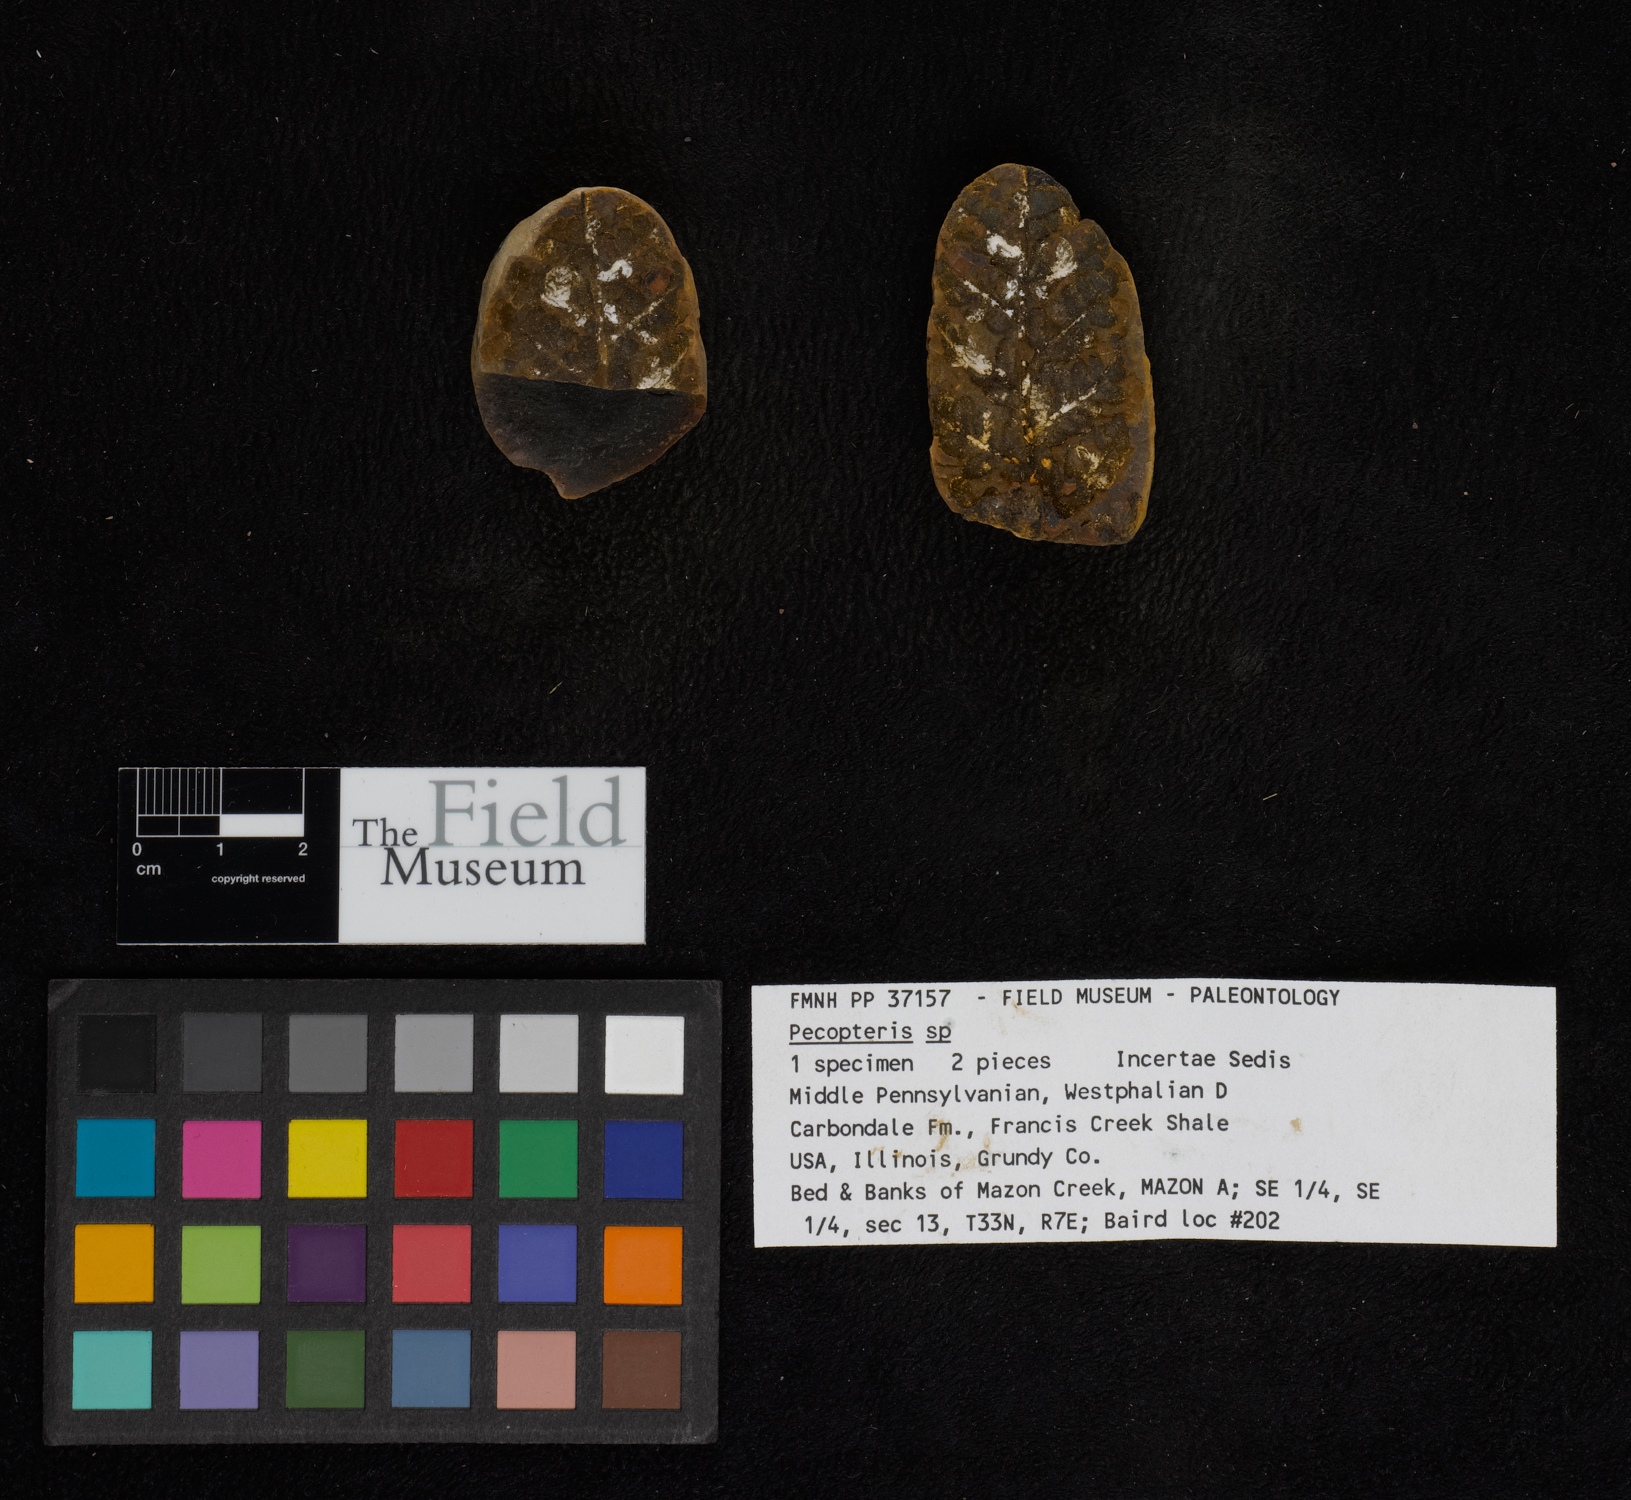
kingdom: Plantae
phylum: Tracheophyta
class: Polypodiopsida
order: Marattiales
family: Asterothecaceae
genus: Pecopteris
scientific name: Pecopteris
